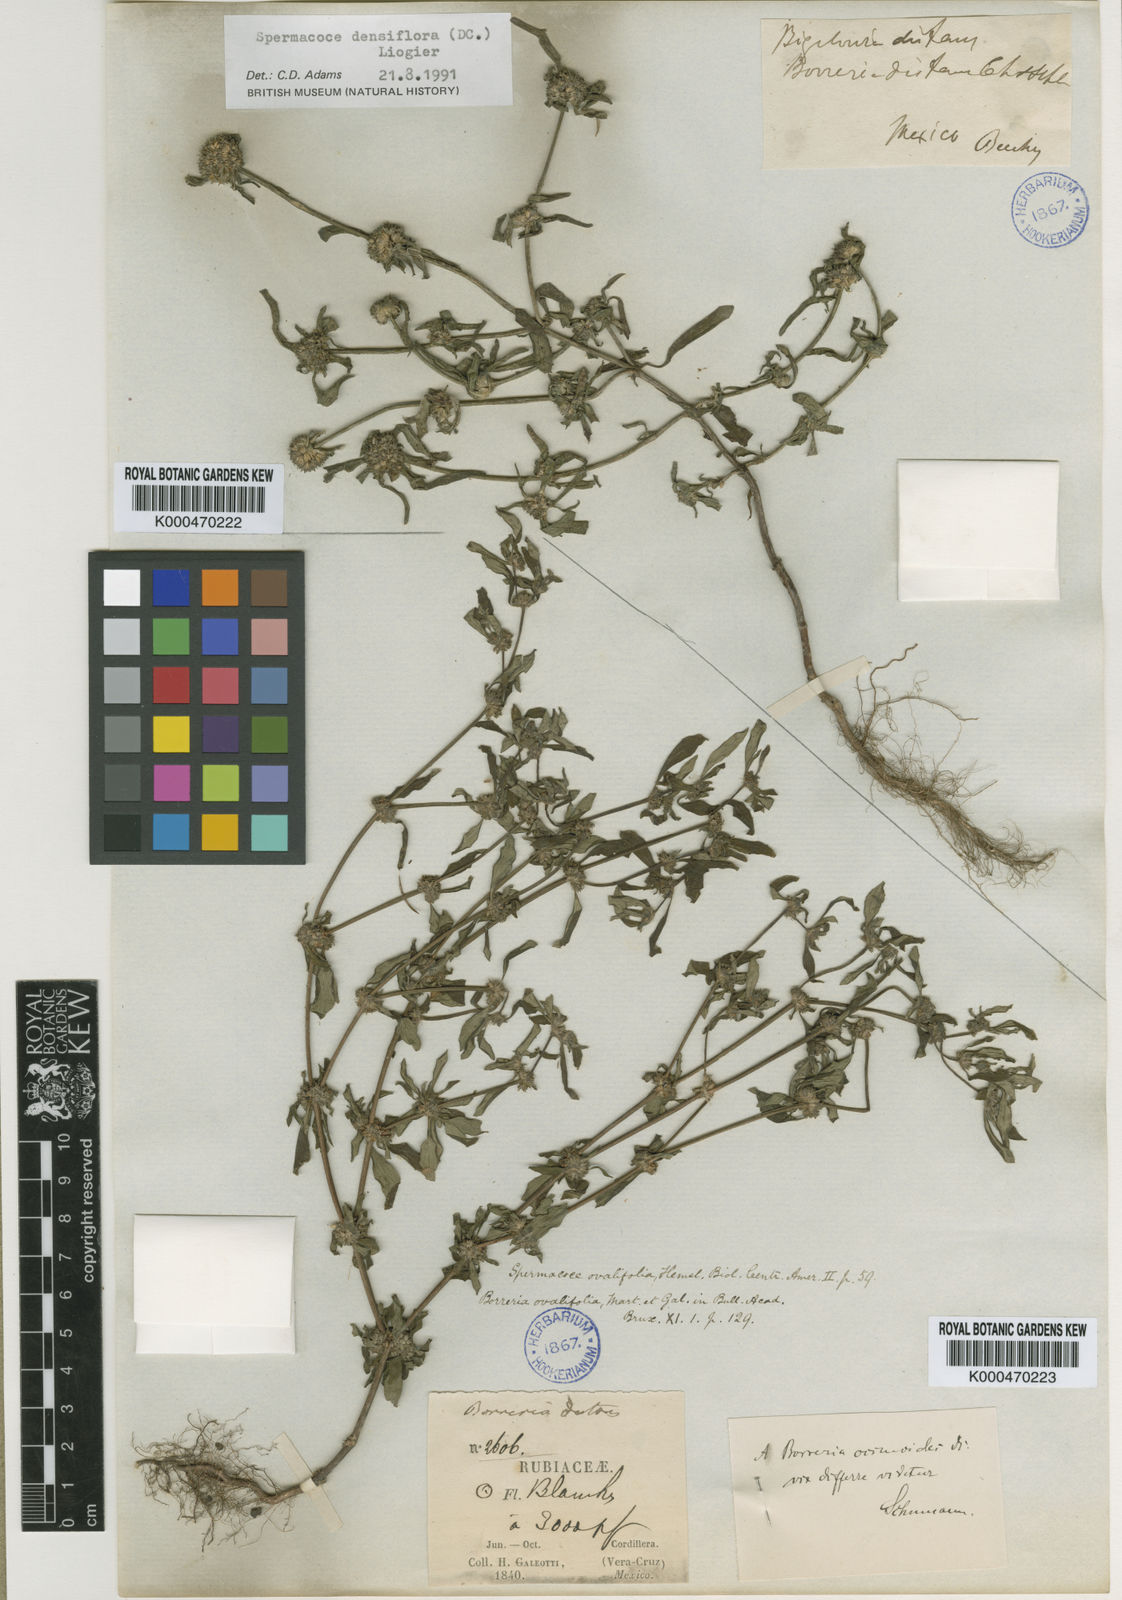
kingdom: Plantae
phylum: Tracheophyta
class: Magnoliopsida
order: Gentianales
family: Rubiaceae
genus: Spermacoce
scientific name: Spermacoce ovalifolia
